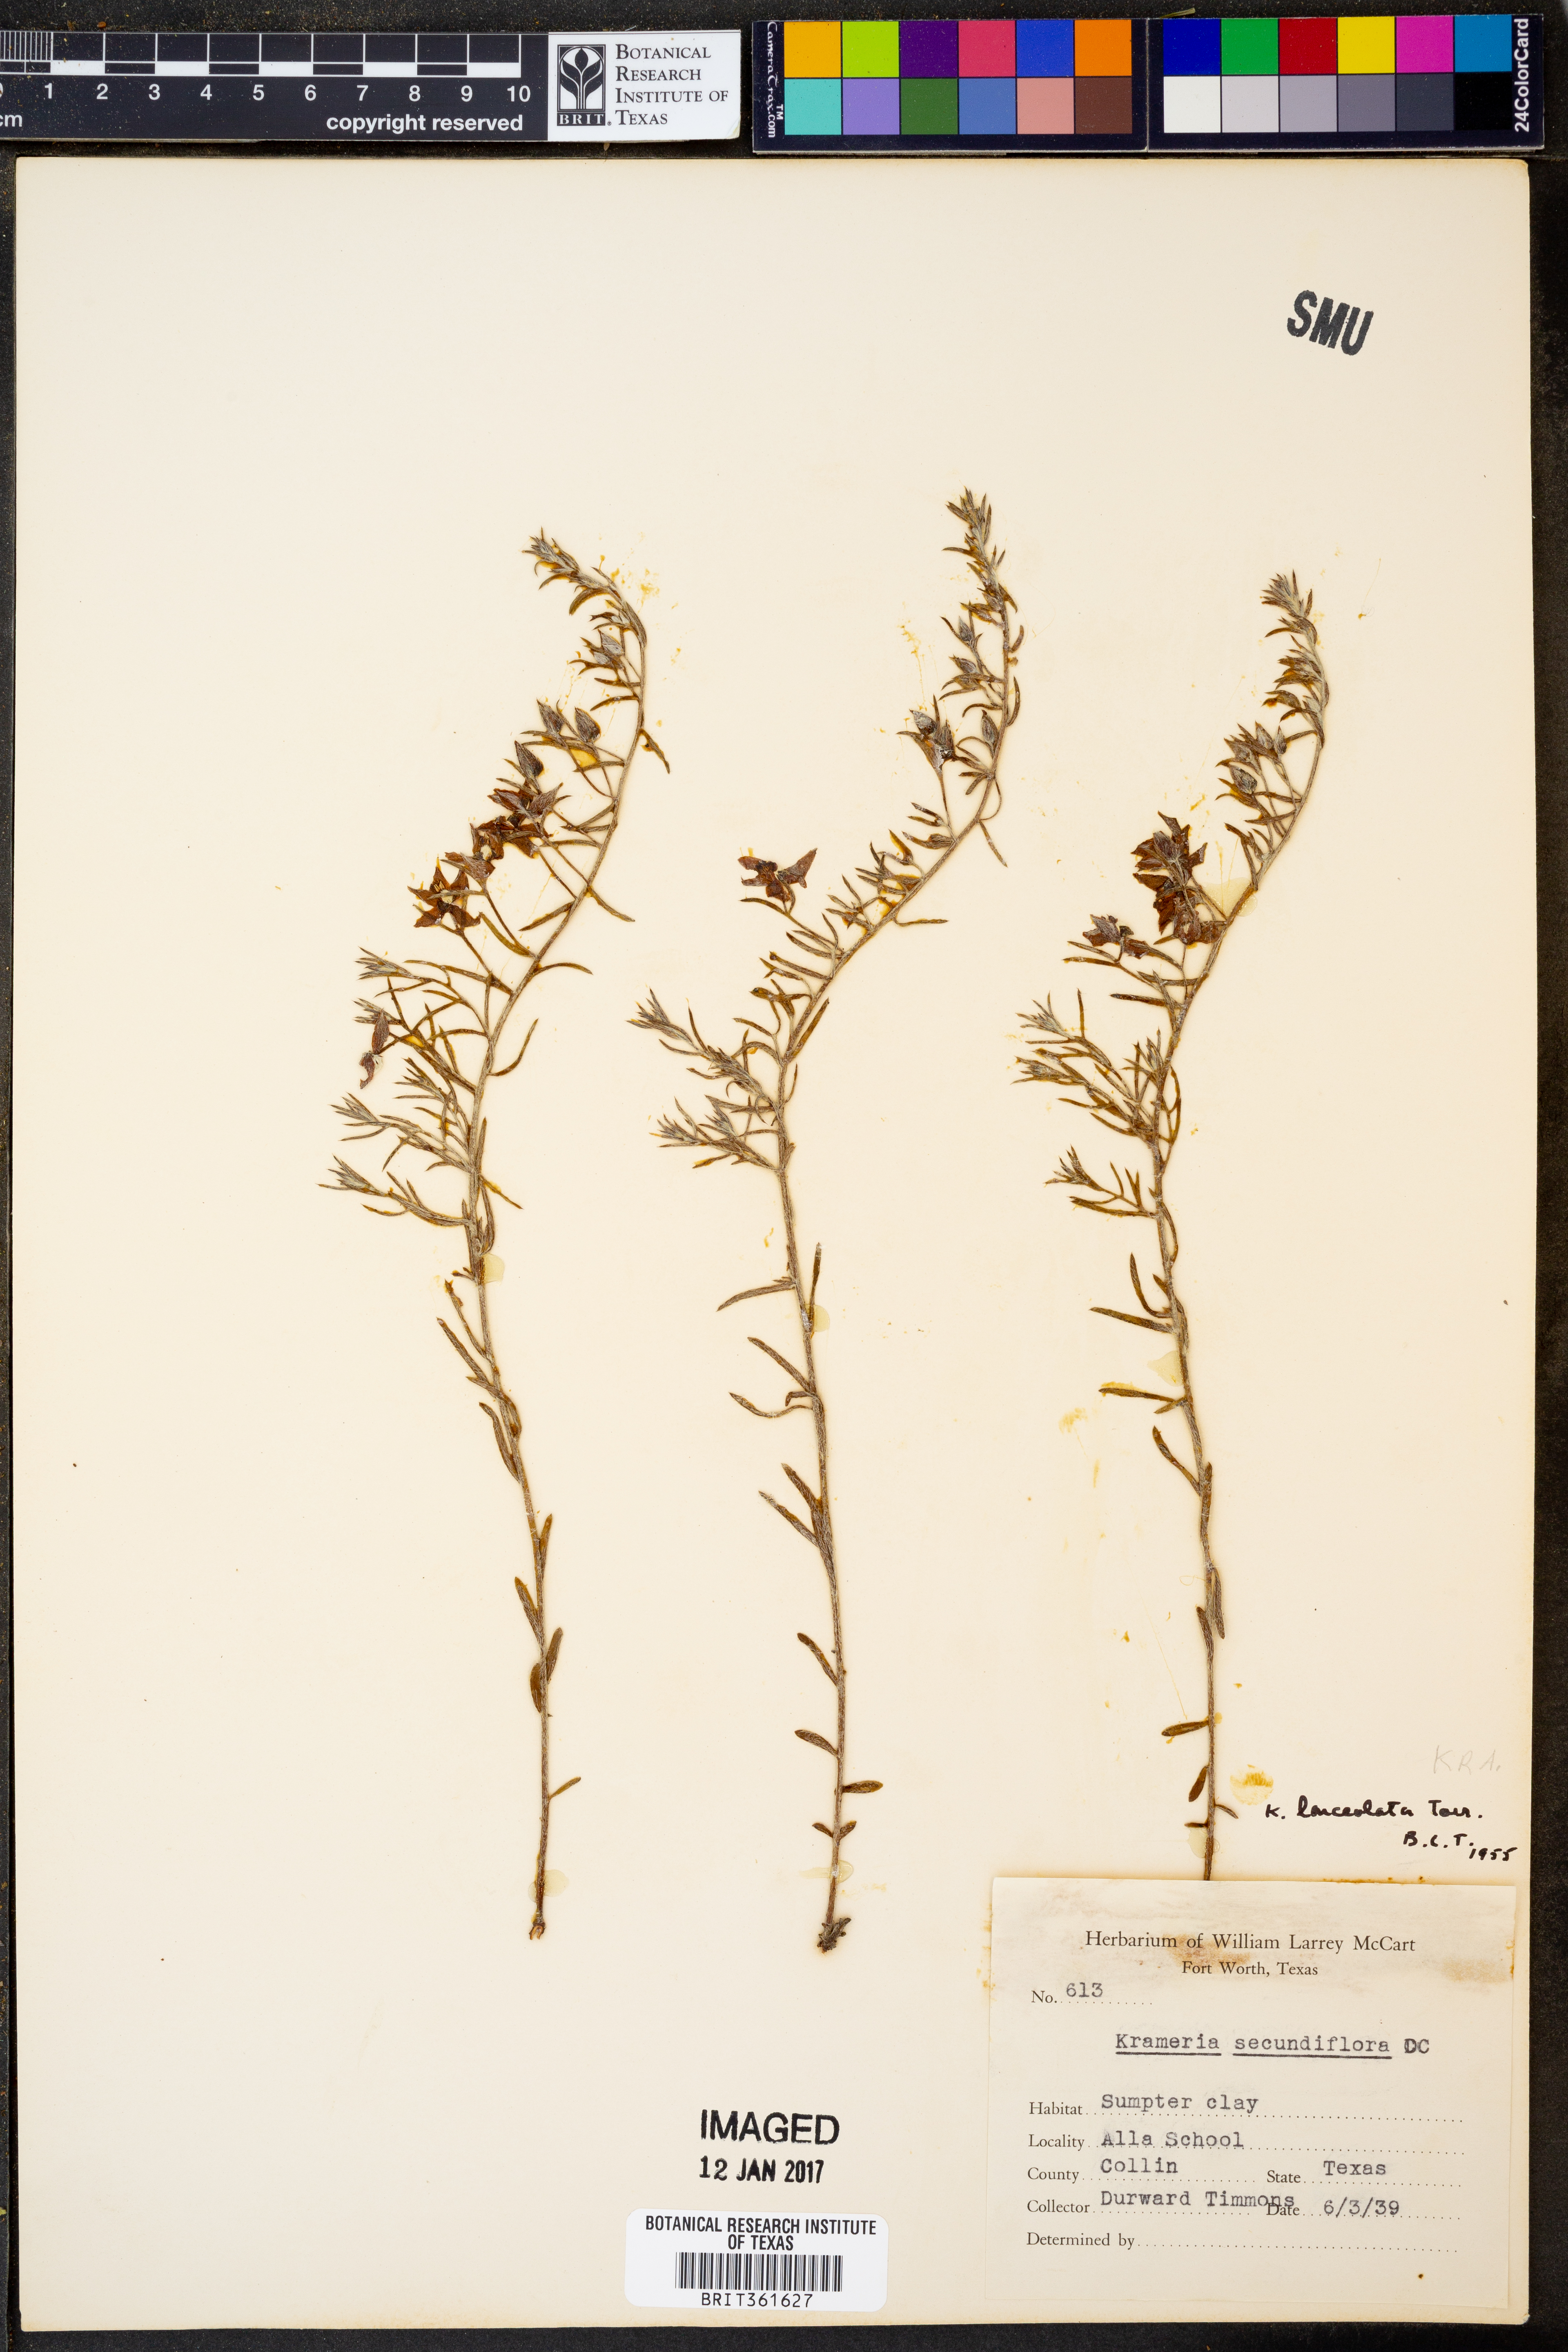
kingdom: Plantae
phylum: Tracheophyta
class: Magnoliopsida
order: Zygophyllales
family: Krameriaceae
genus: Krameria
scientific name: Krameria lanceolata
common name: Ratany
